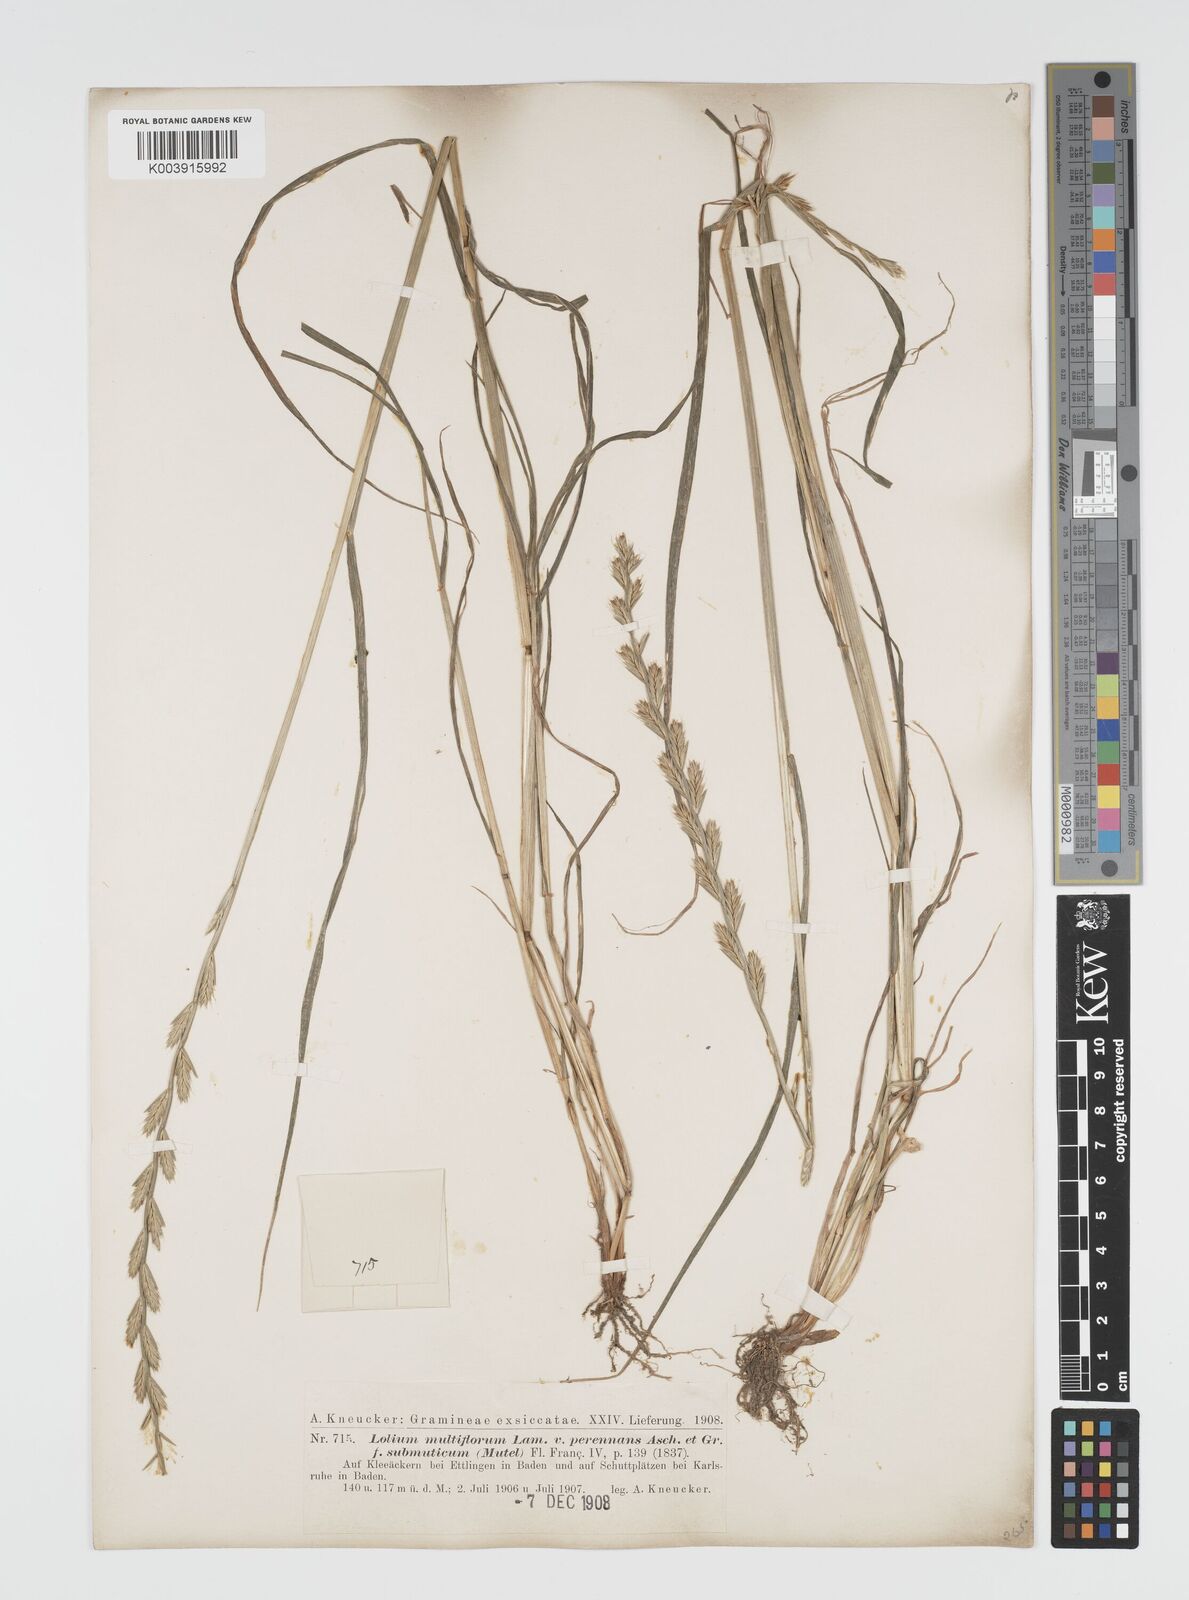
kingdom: Plantae
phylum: Tracheophyta
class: Liliopsida
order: Poales
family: Poaceae
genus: Lolium
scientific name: Lolium multiflorum
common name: Annual ryegrass
